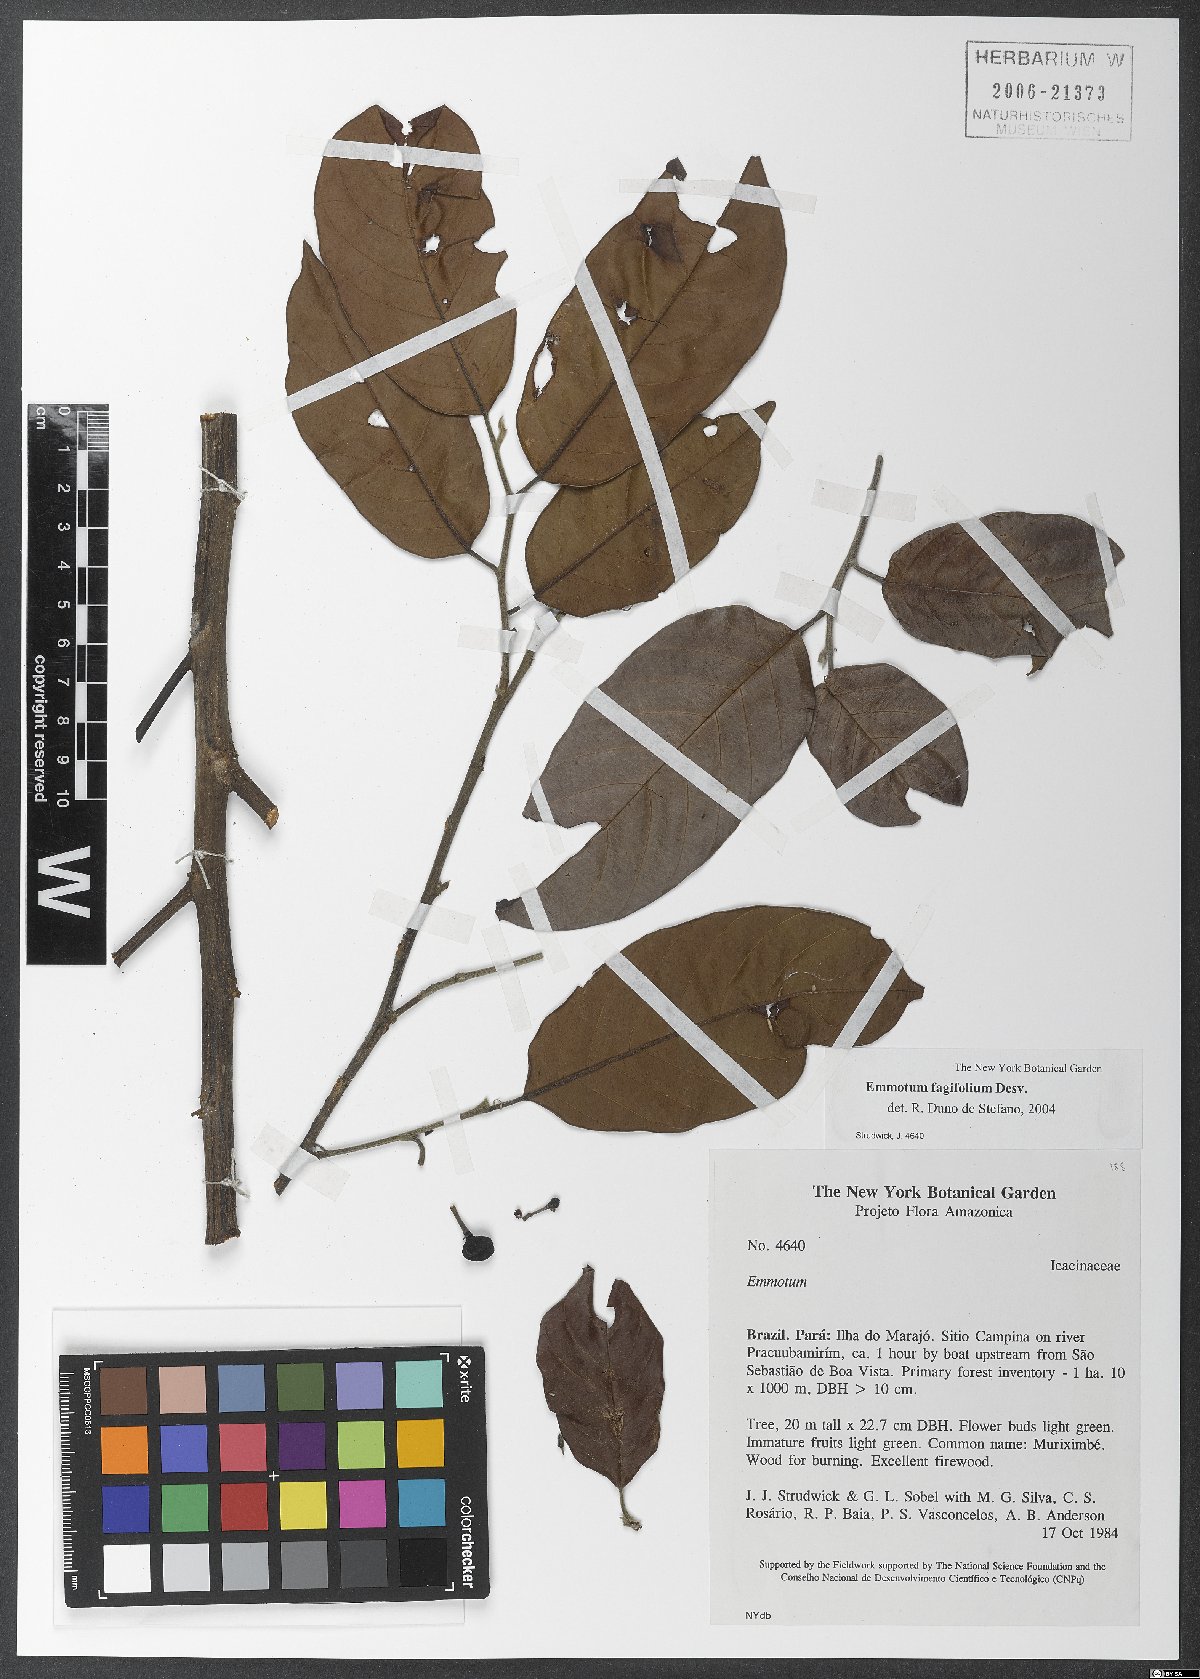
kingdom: Plantae
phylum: Tracheophyta
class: Magnoliopsida
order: Metteniusales
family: Metteniusaceae
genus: Emmotum
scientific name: Emmotum fagifolium
